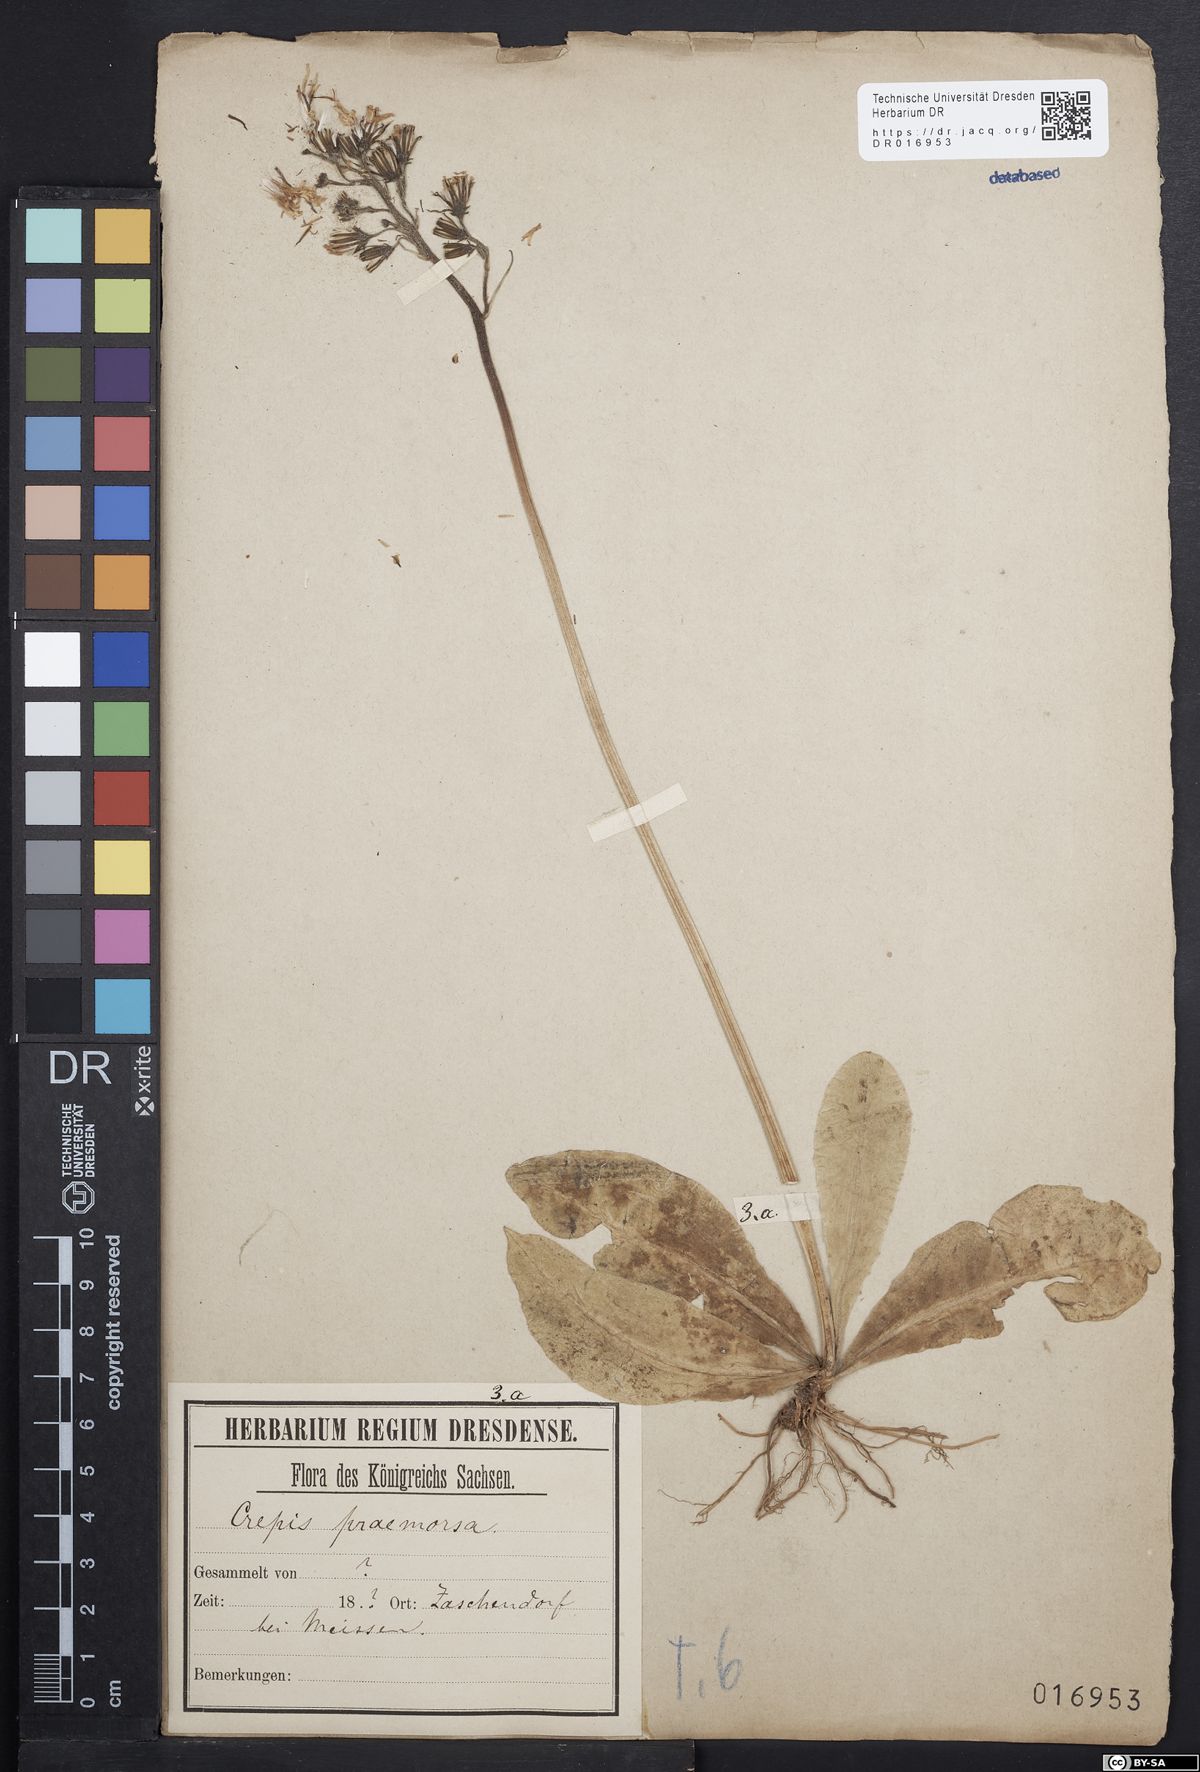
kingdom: Plantae
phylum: Tracheophyta
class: Magnoliopsida
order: Asterales
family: Asteraceae
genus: Crepis
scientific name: Crepis praemorsa
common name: Leafless hawk's-beard
